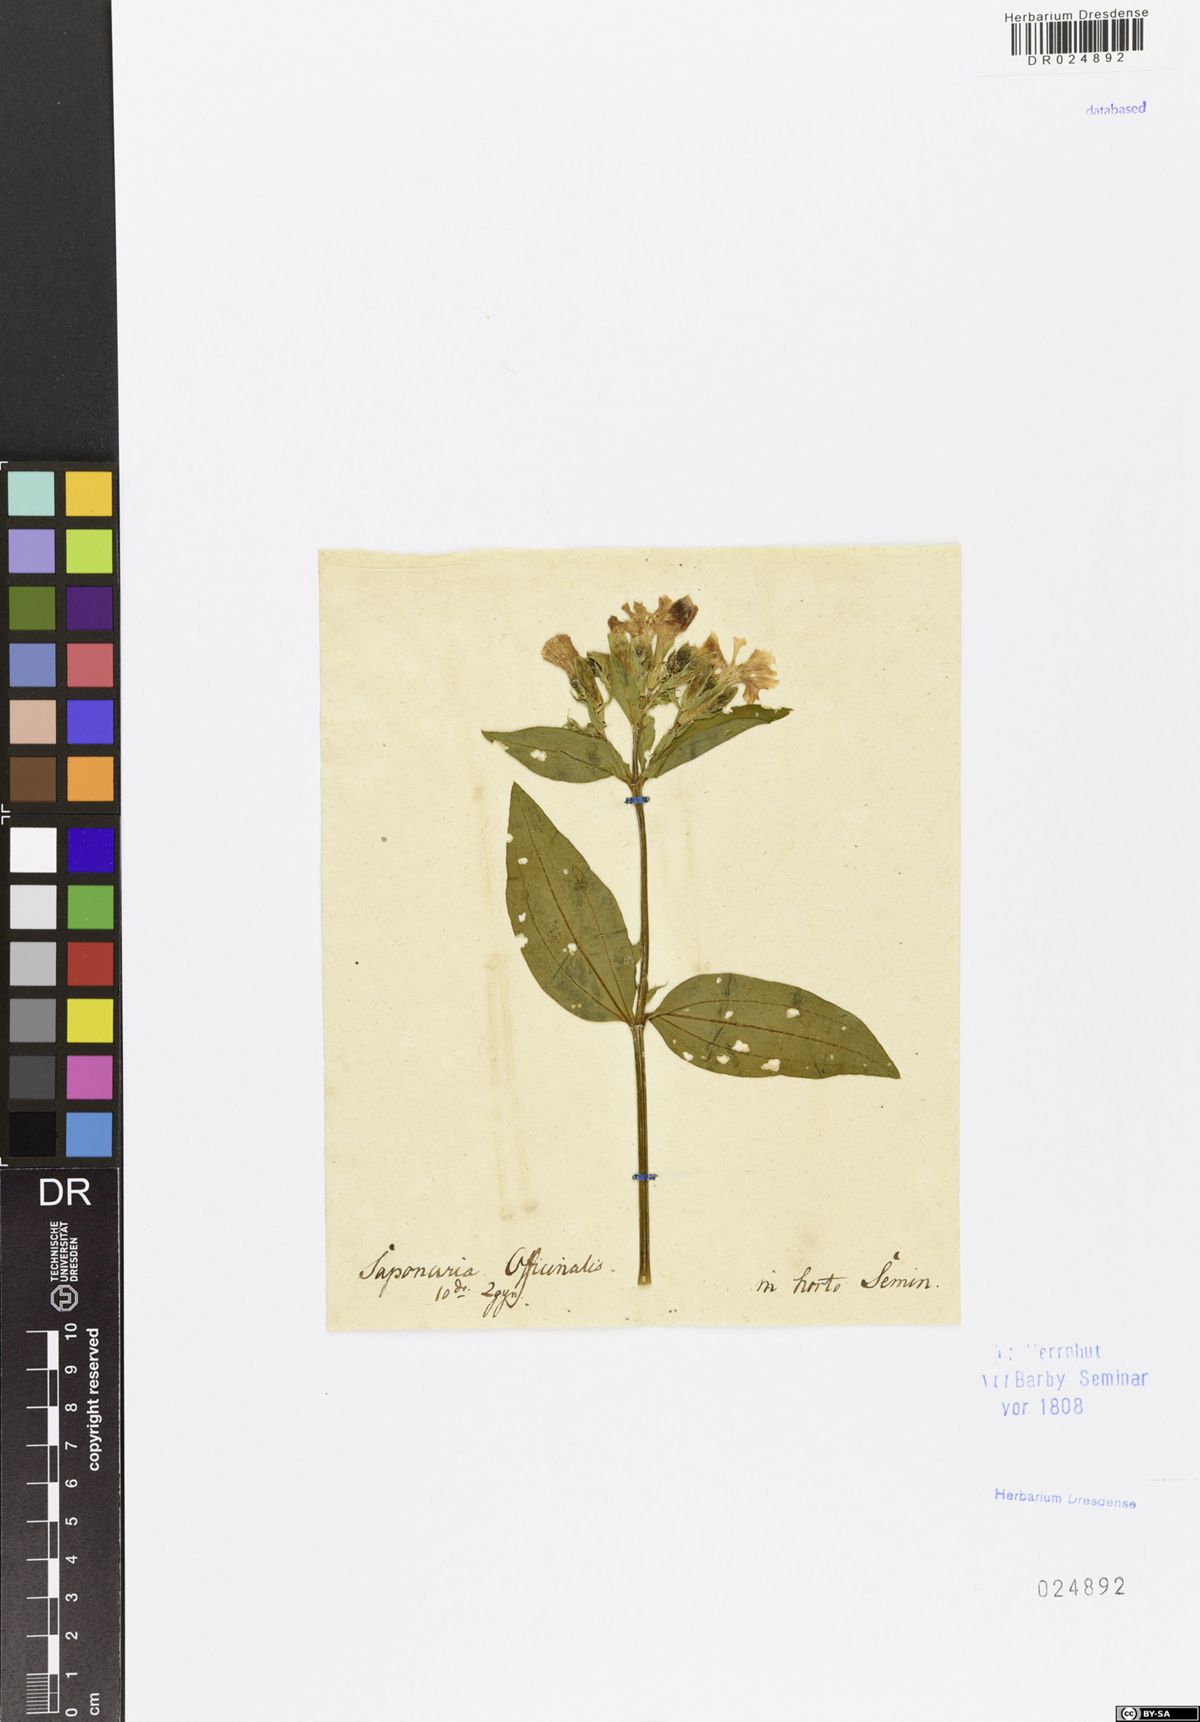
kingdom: Plantae
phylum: Tracheophyta
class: Magnoliopsida
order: Caryophyllales
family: Caryophyllaceae
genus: Saponaria
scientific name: Saponaria officinalis
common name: Soapwort
